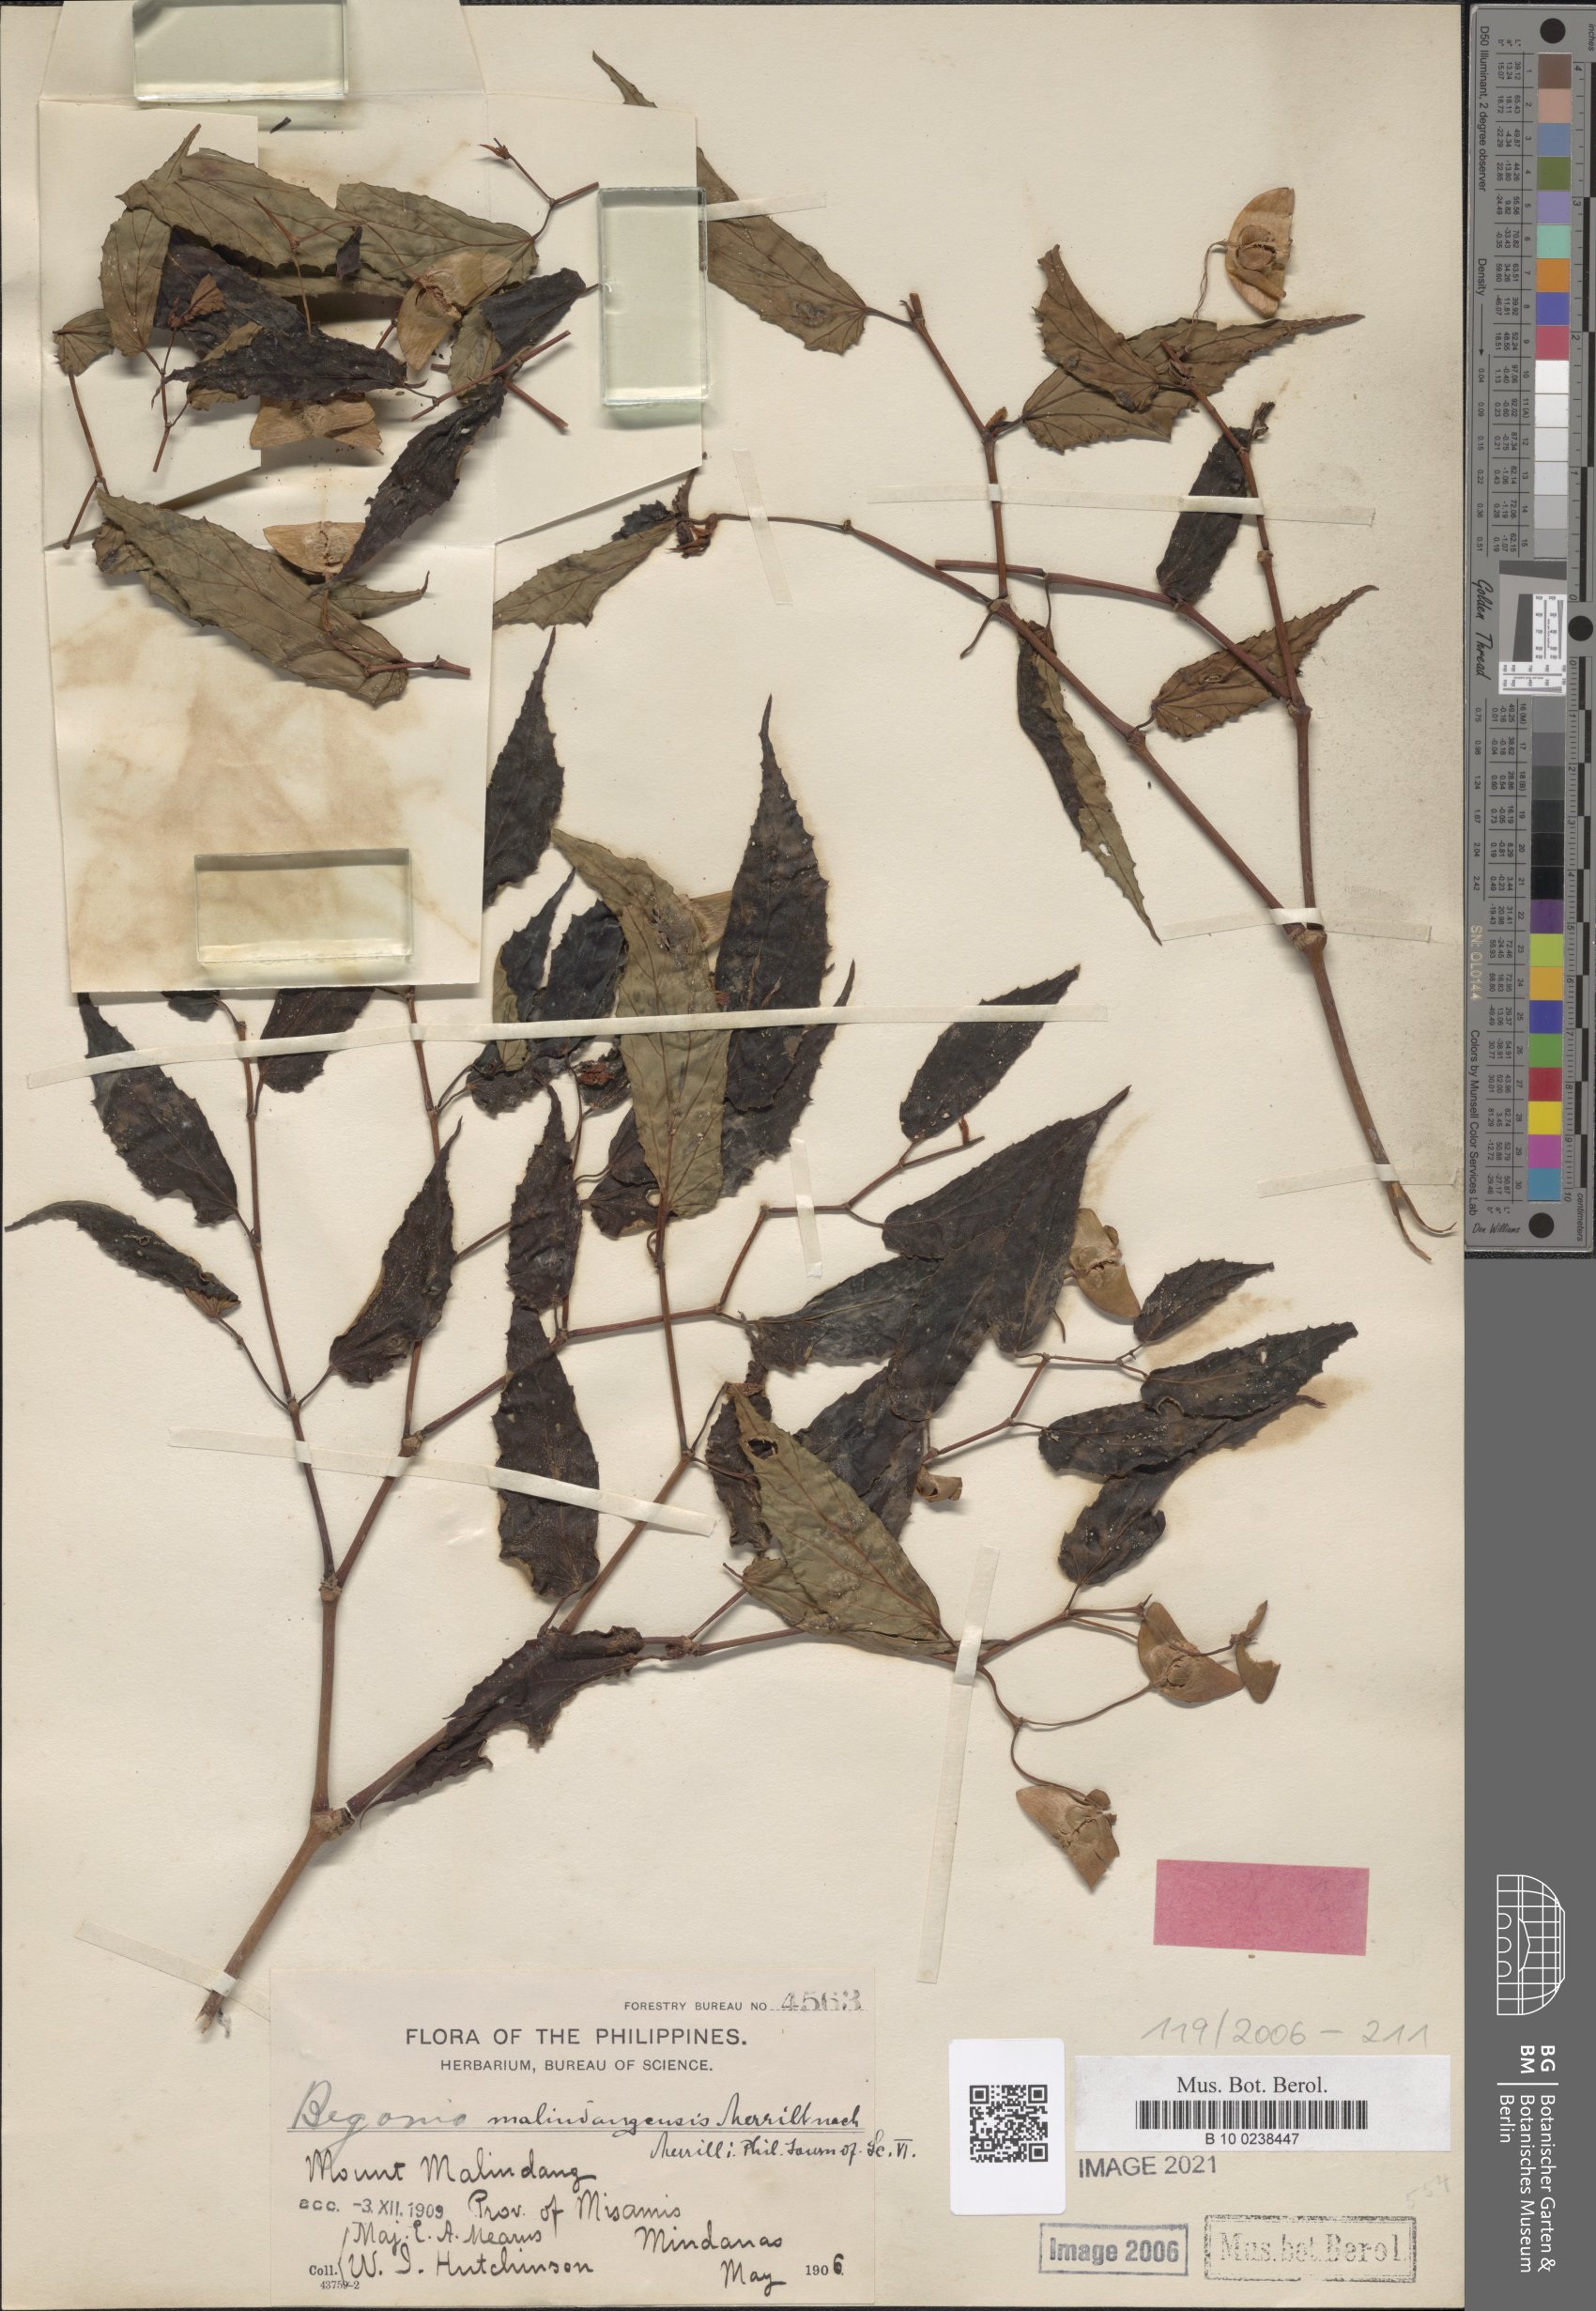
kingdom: Plantae
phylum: Tracheophyta
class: Magnoliopsida
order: Cucurbitales
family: Begoniaceae
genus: Begonia
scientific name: Begonia malindangensis
